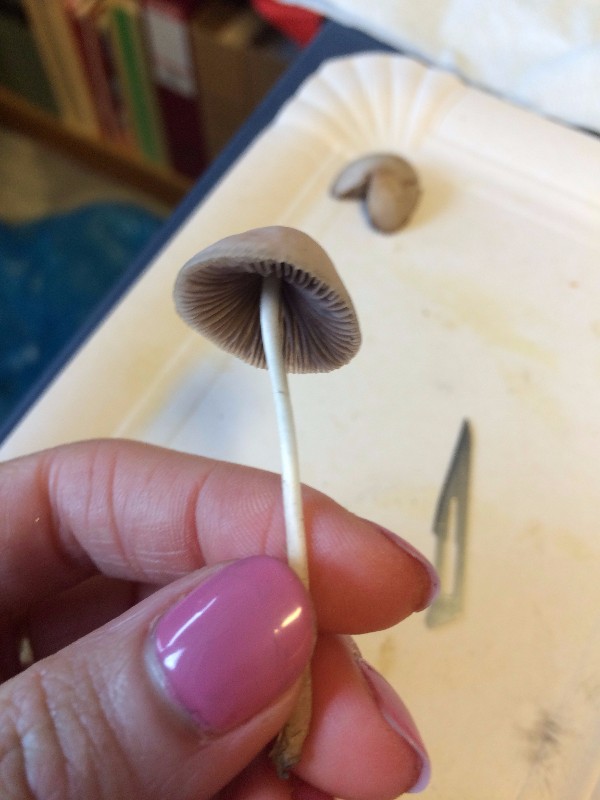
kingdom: Fungi
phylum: Basidiomycota
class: Agaricomycetes
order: Agaricales
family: Psathyrellaceae
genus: Psathyrella
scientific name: Psathyrella
